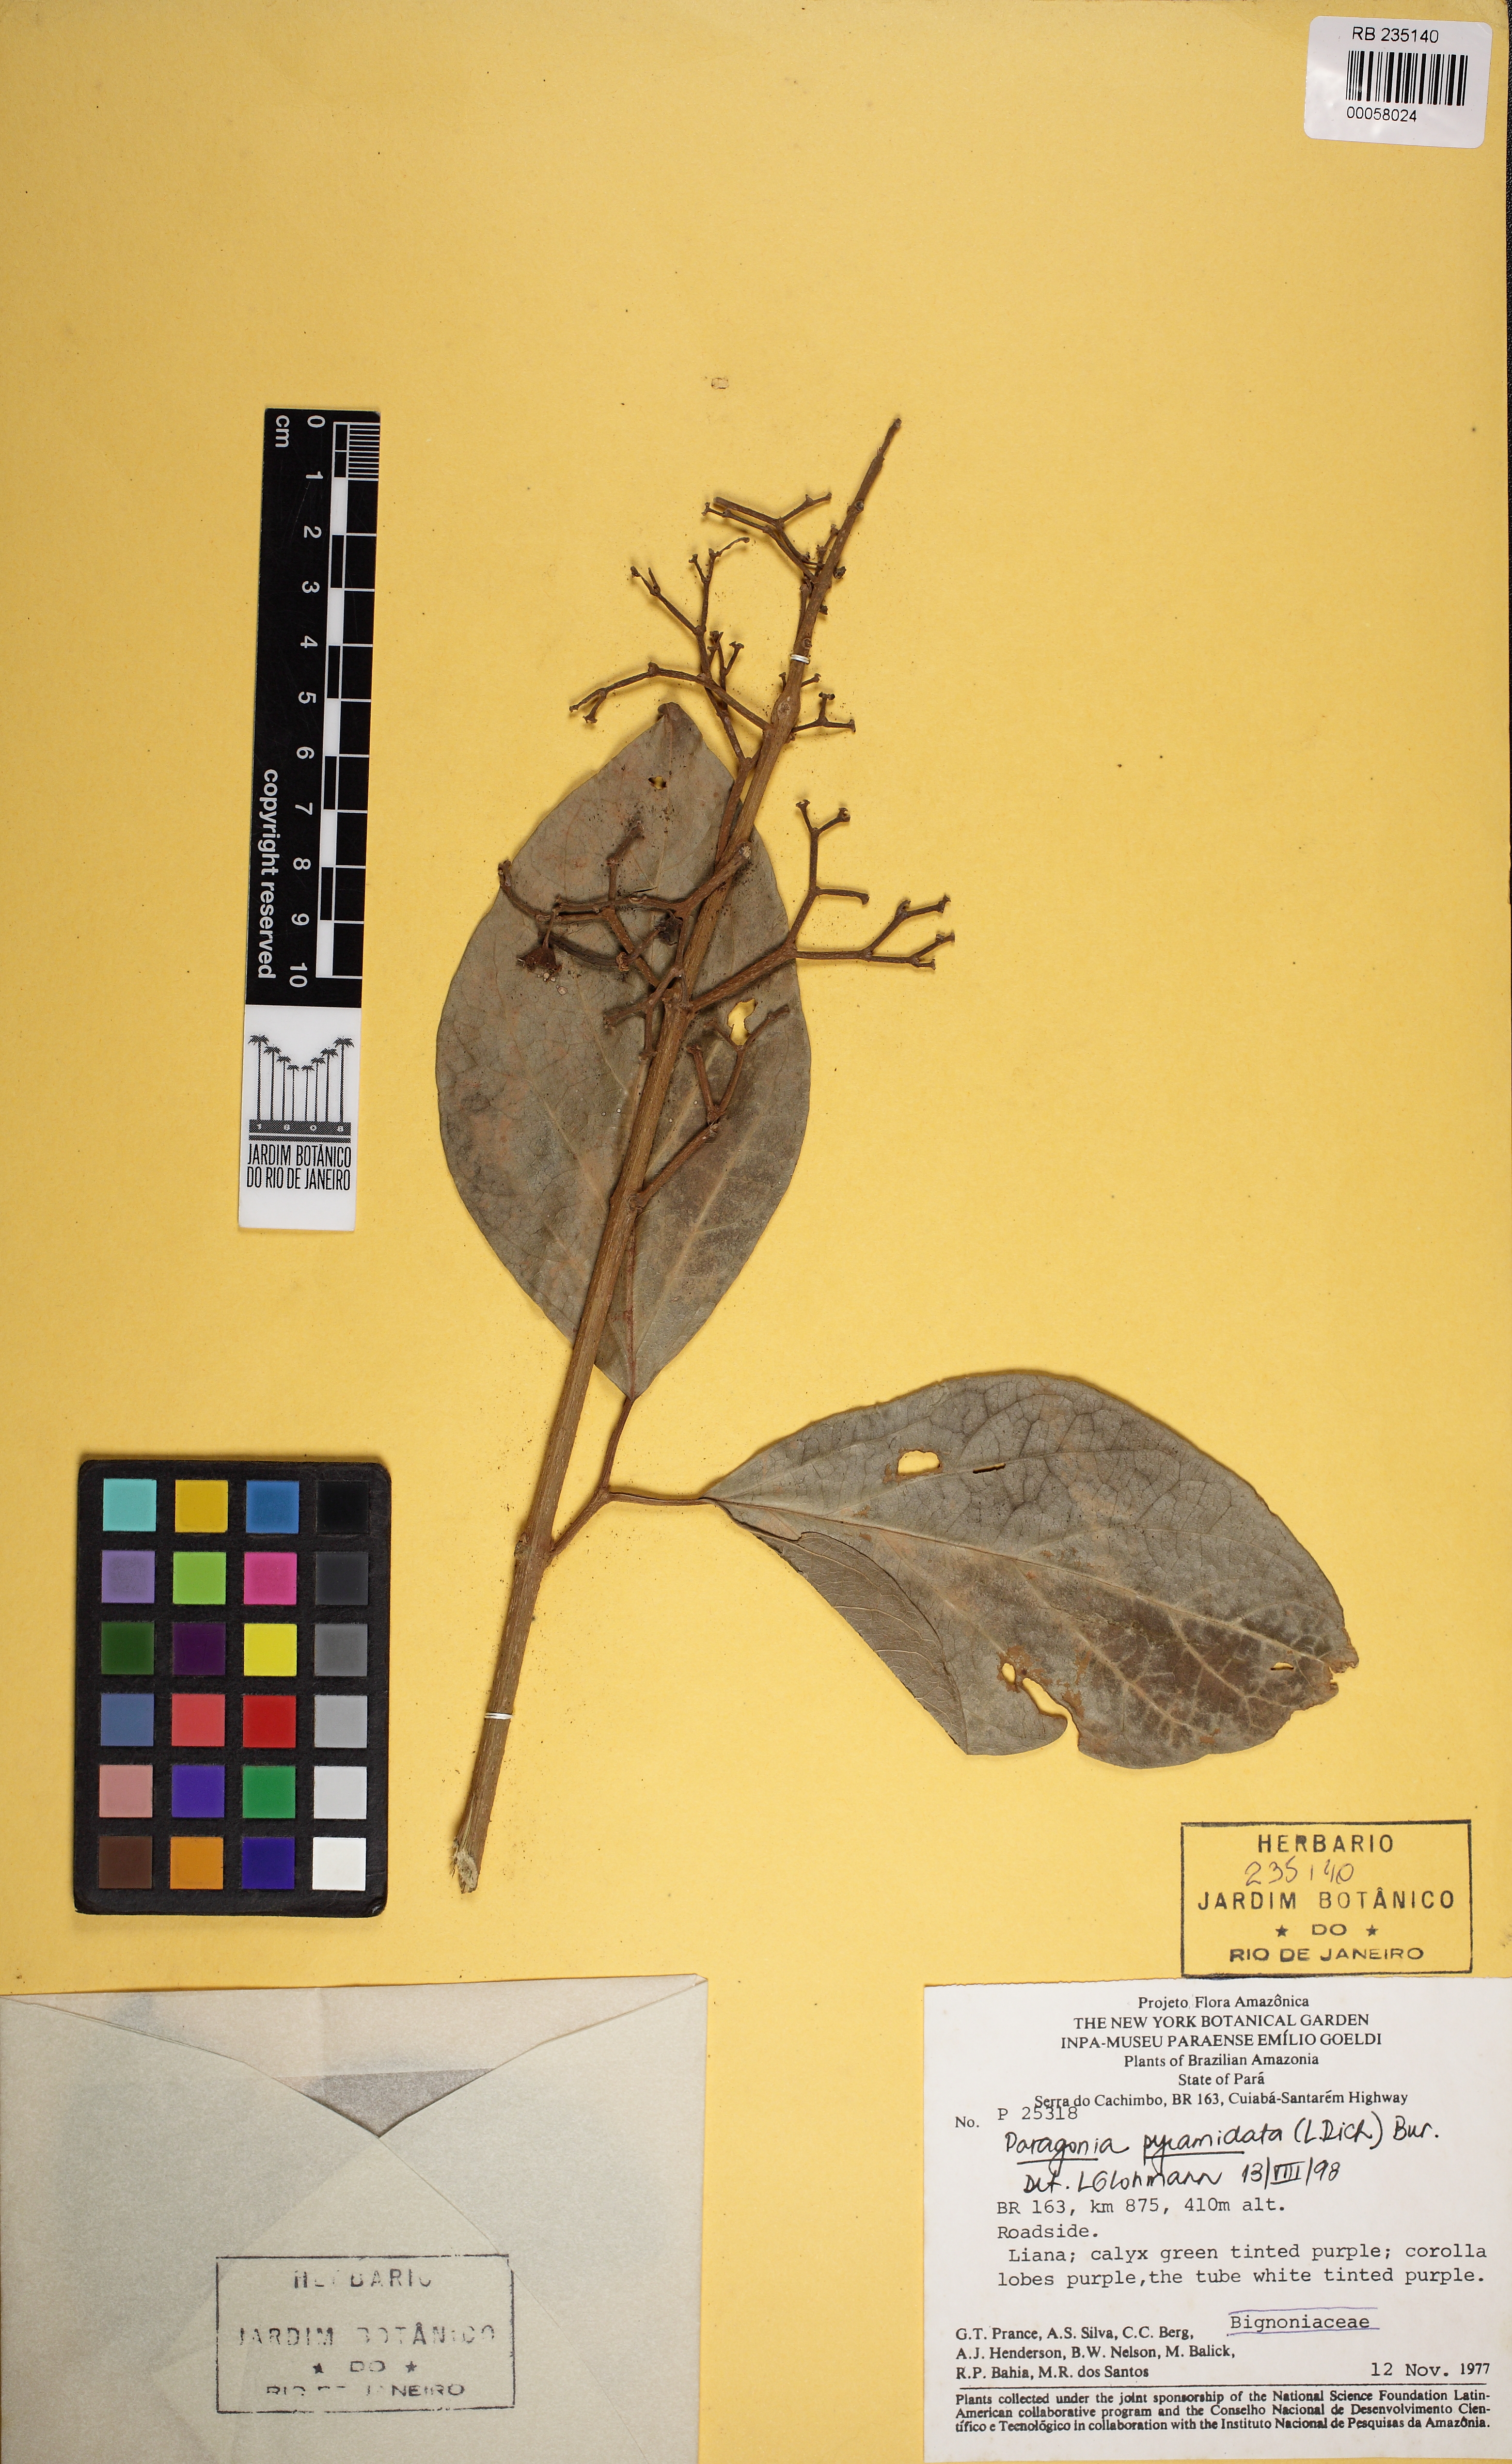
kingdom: Plantae
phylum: Tracheophyta
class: Magnoliopsida
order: Lamiales
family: Bignoniaceae
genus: Tanaecium
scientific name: Tanaecium pyramidatum
